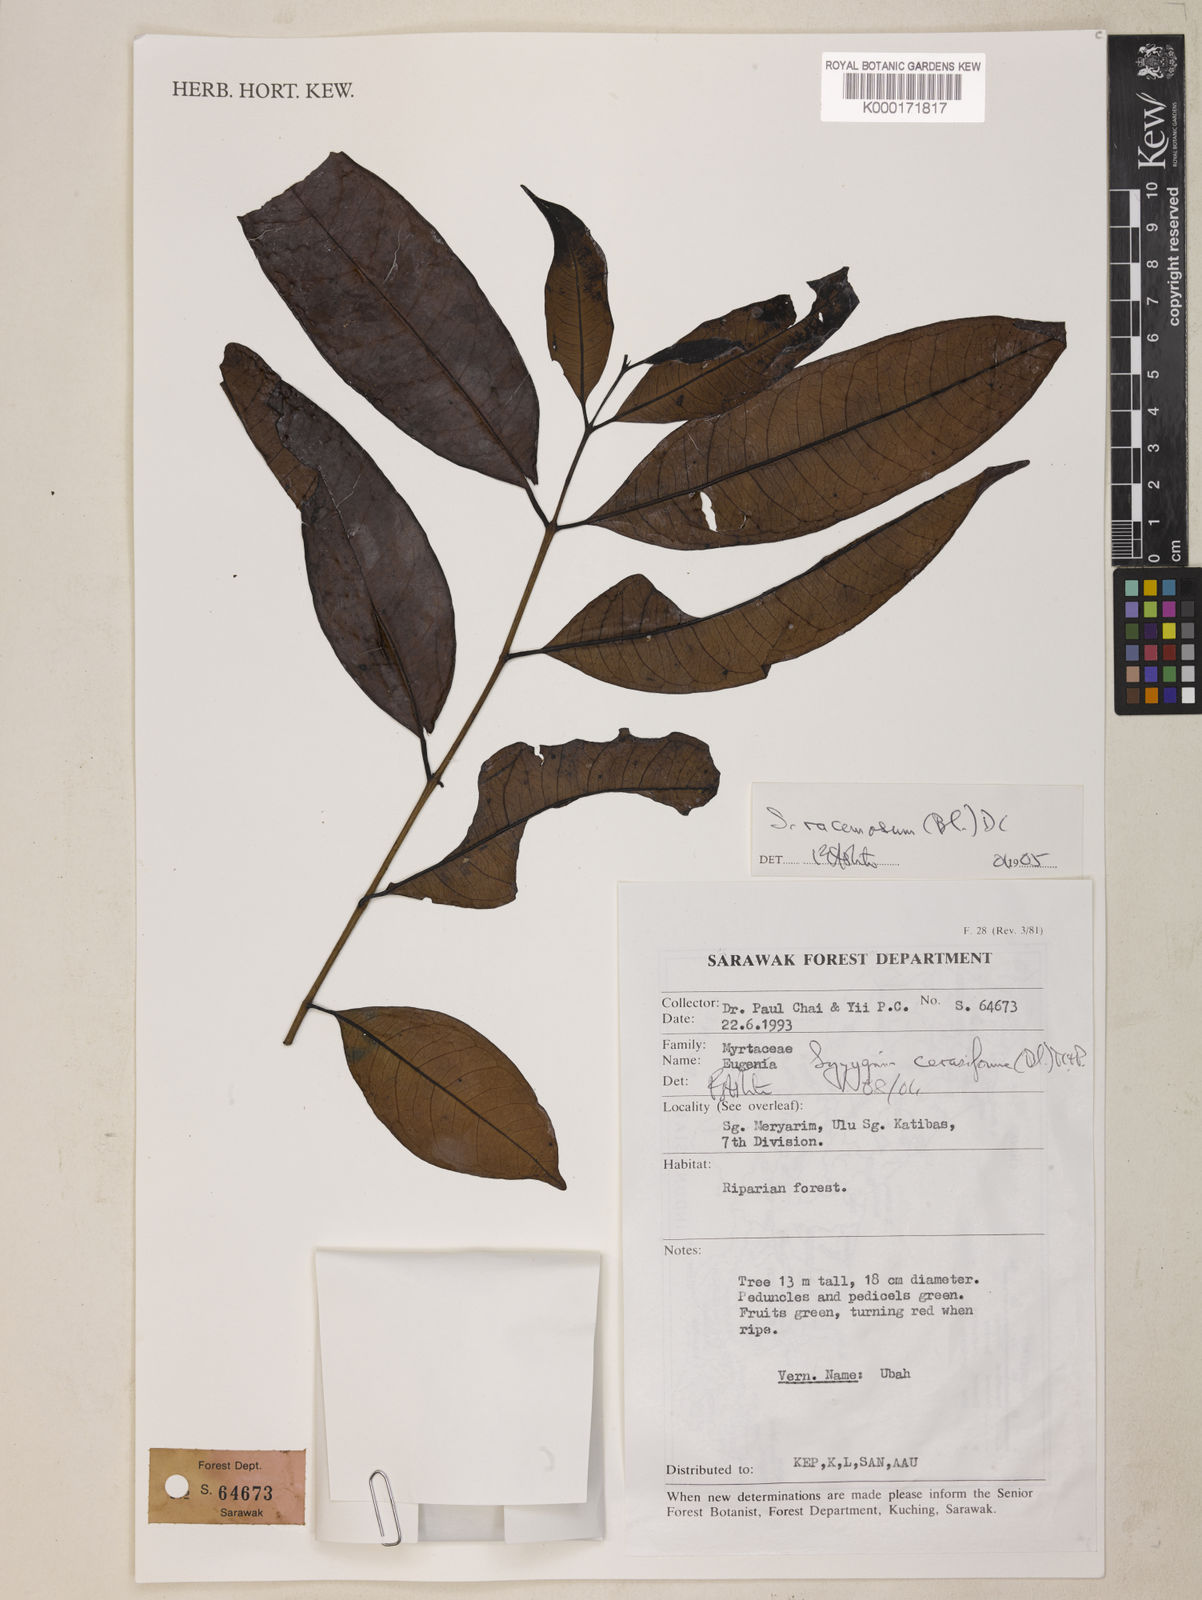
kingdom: Plantae
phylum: Tracheophyta
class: Magnoliopsida
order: Myrtales
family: Myrtaceae
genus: Syzygium
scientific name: Syzygium racemosum
